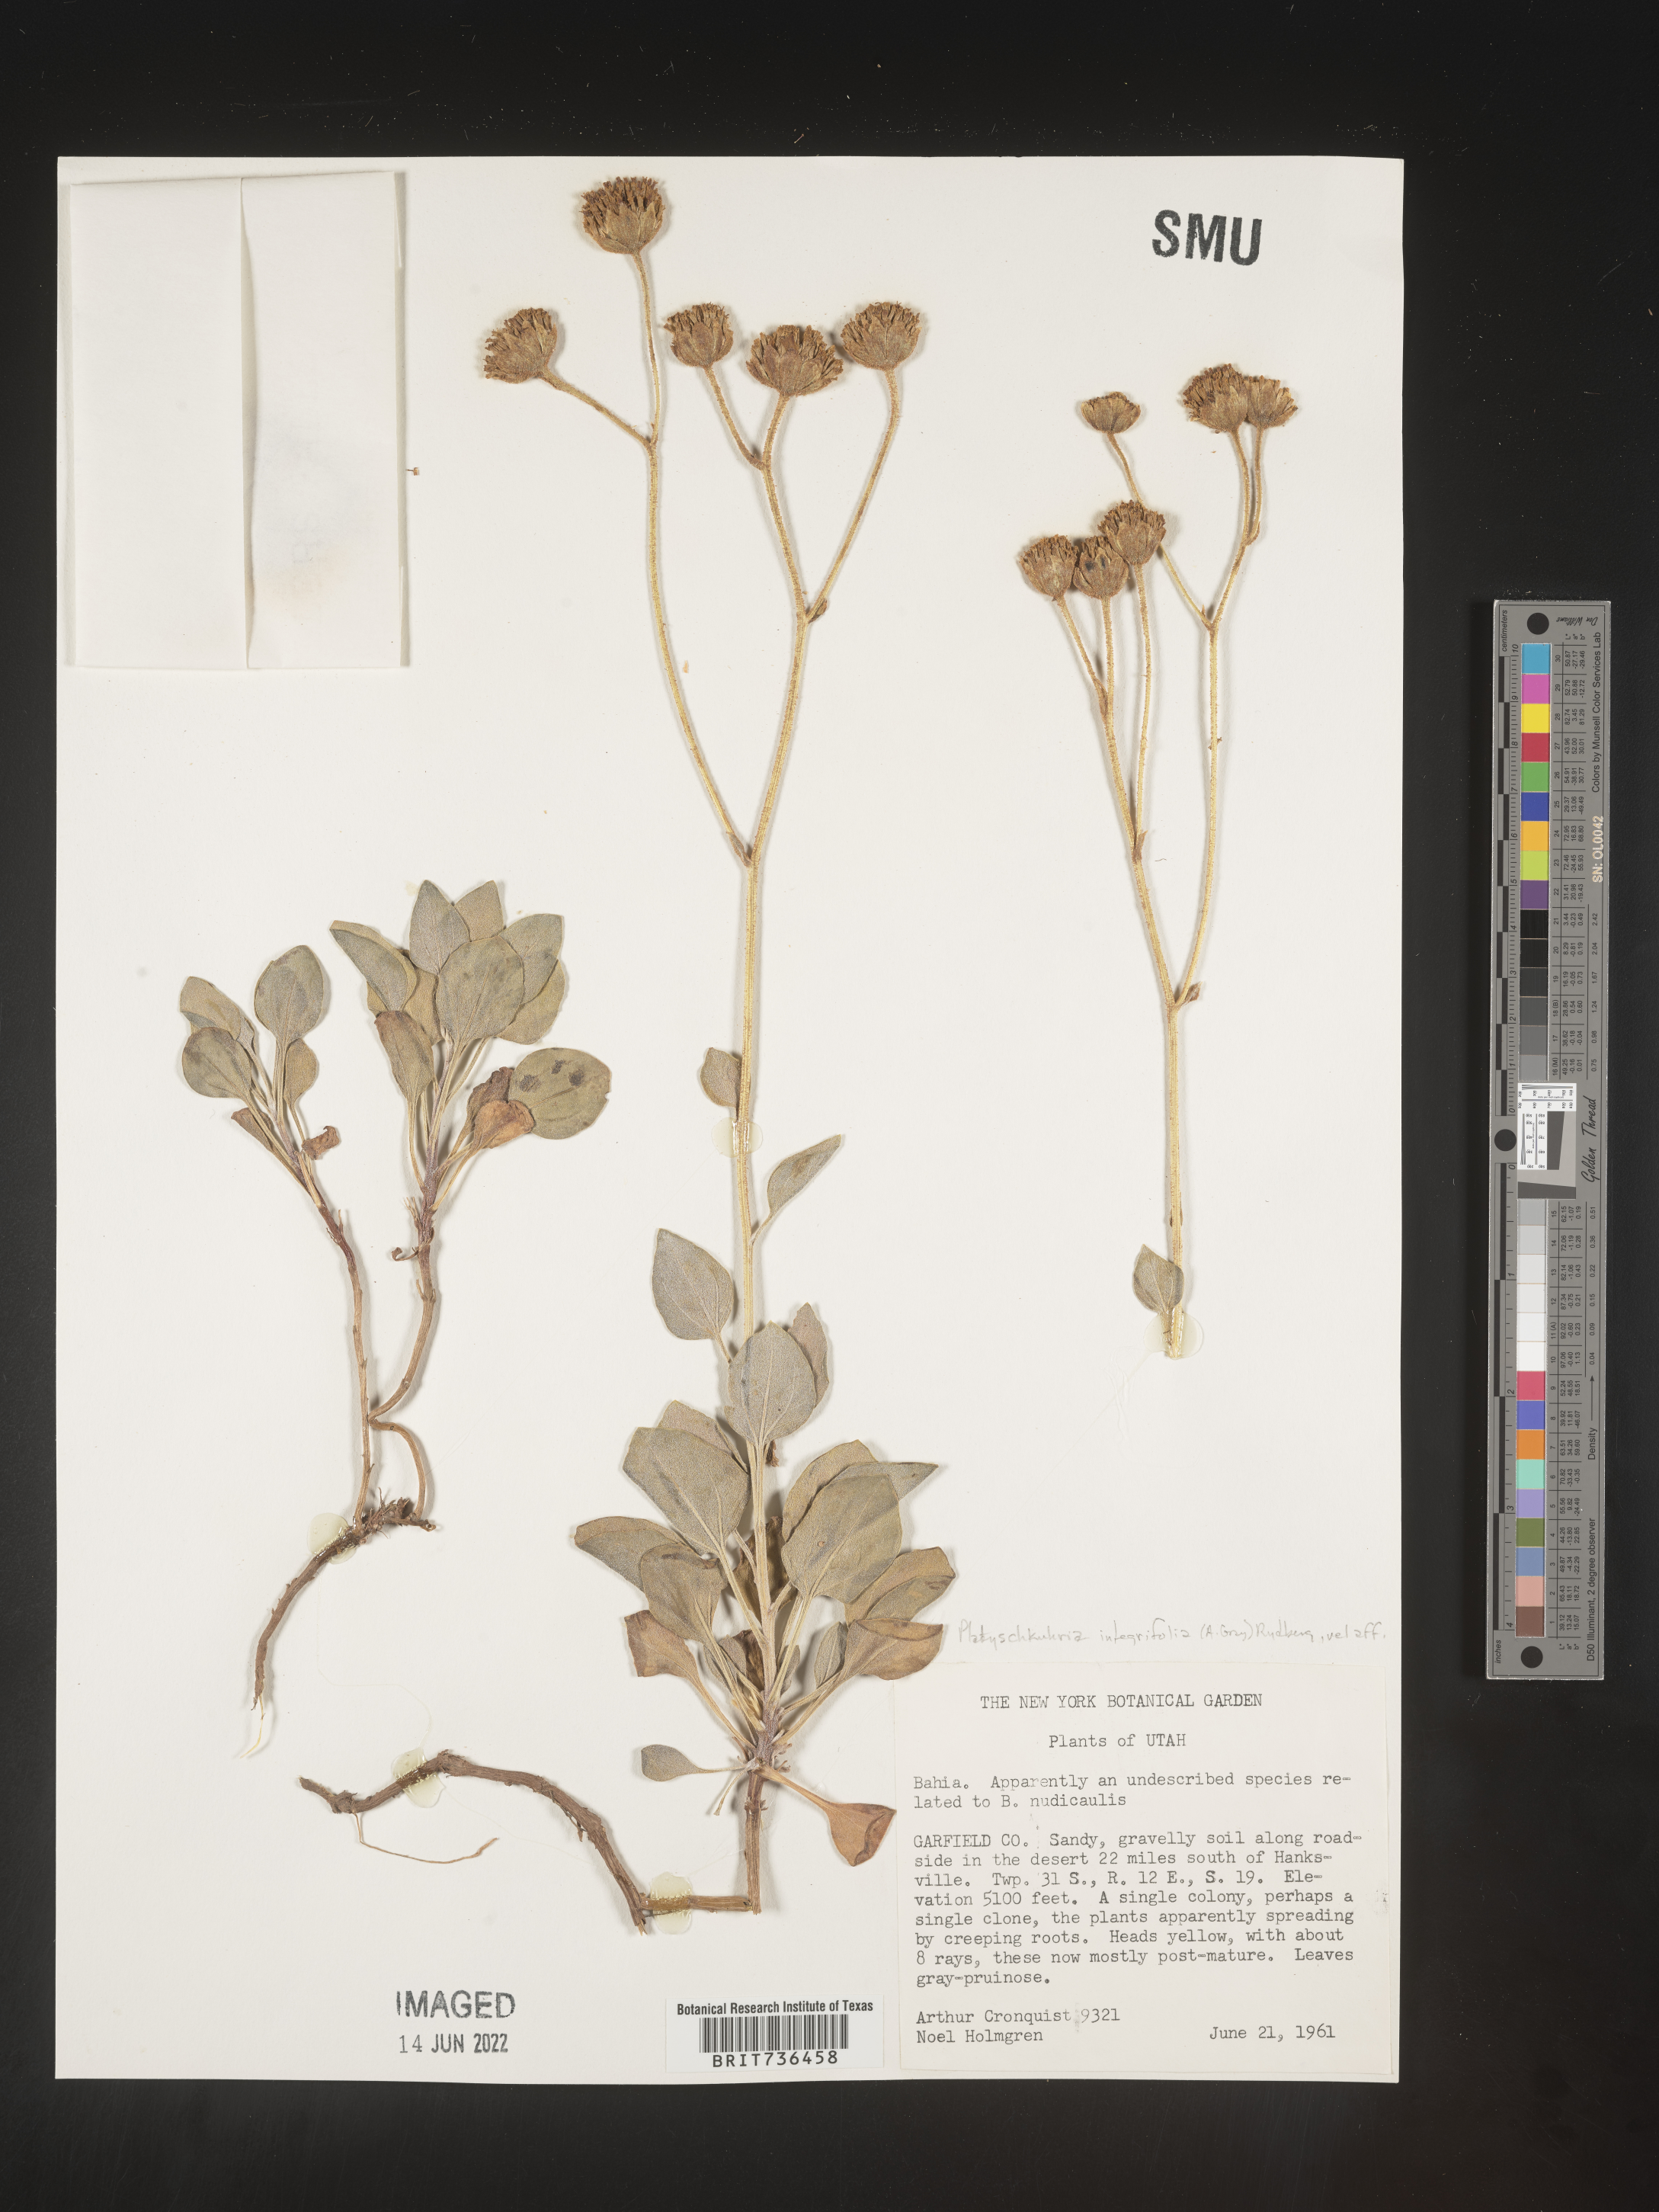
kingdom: Plantae
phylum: Tracheophyta
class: Magnoliopsida
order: Asterales
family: Asteraceae
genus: Platyschkuhria
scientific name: Platyschkuhria
